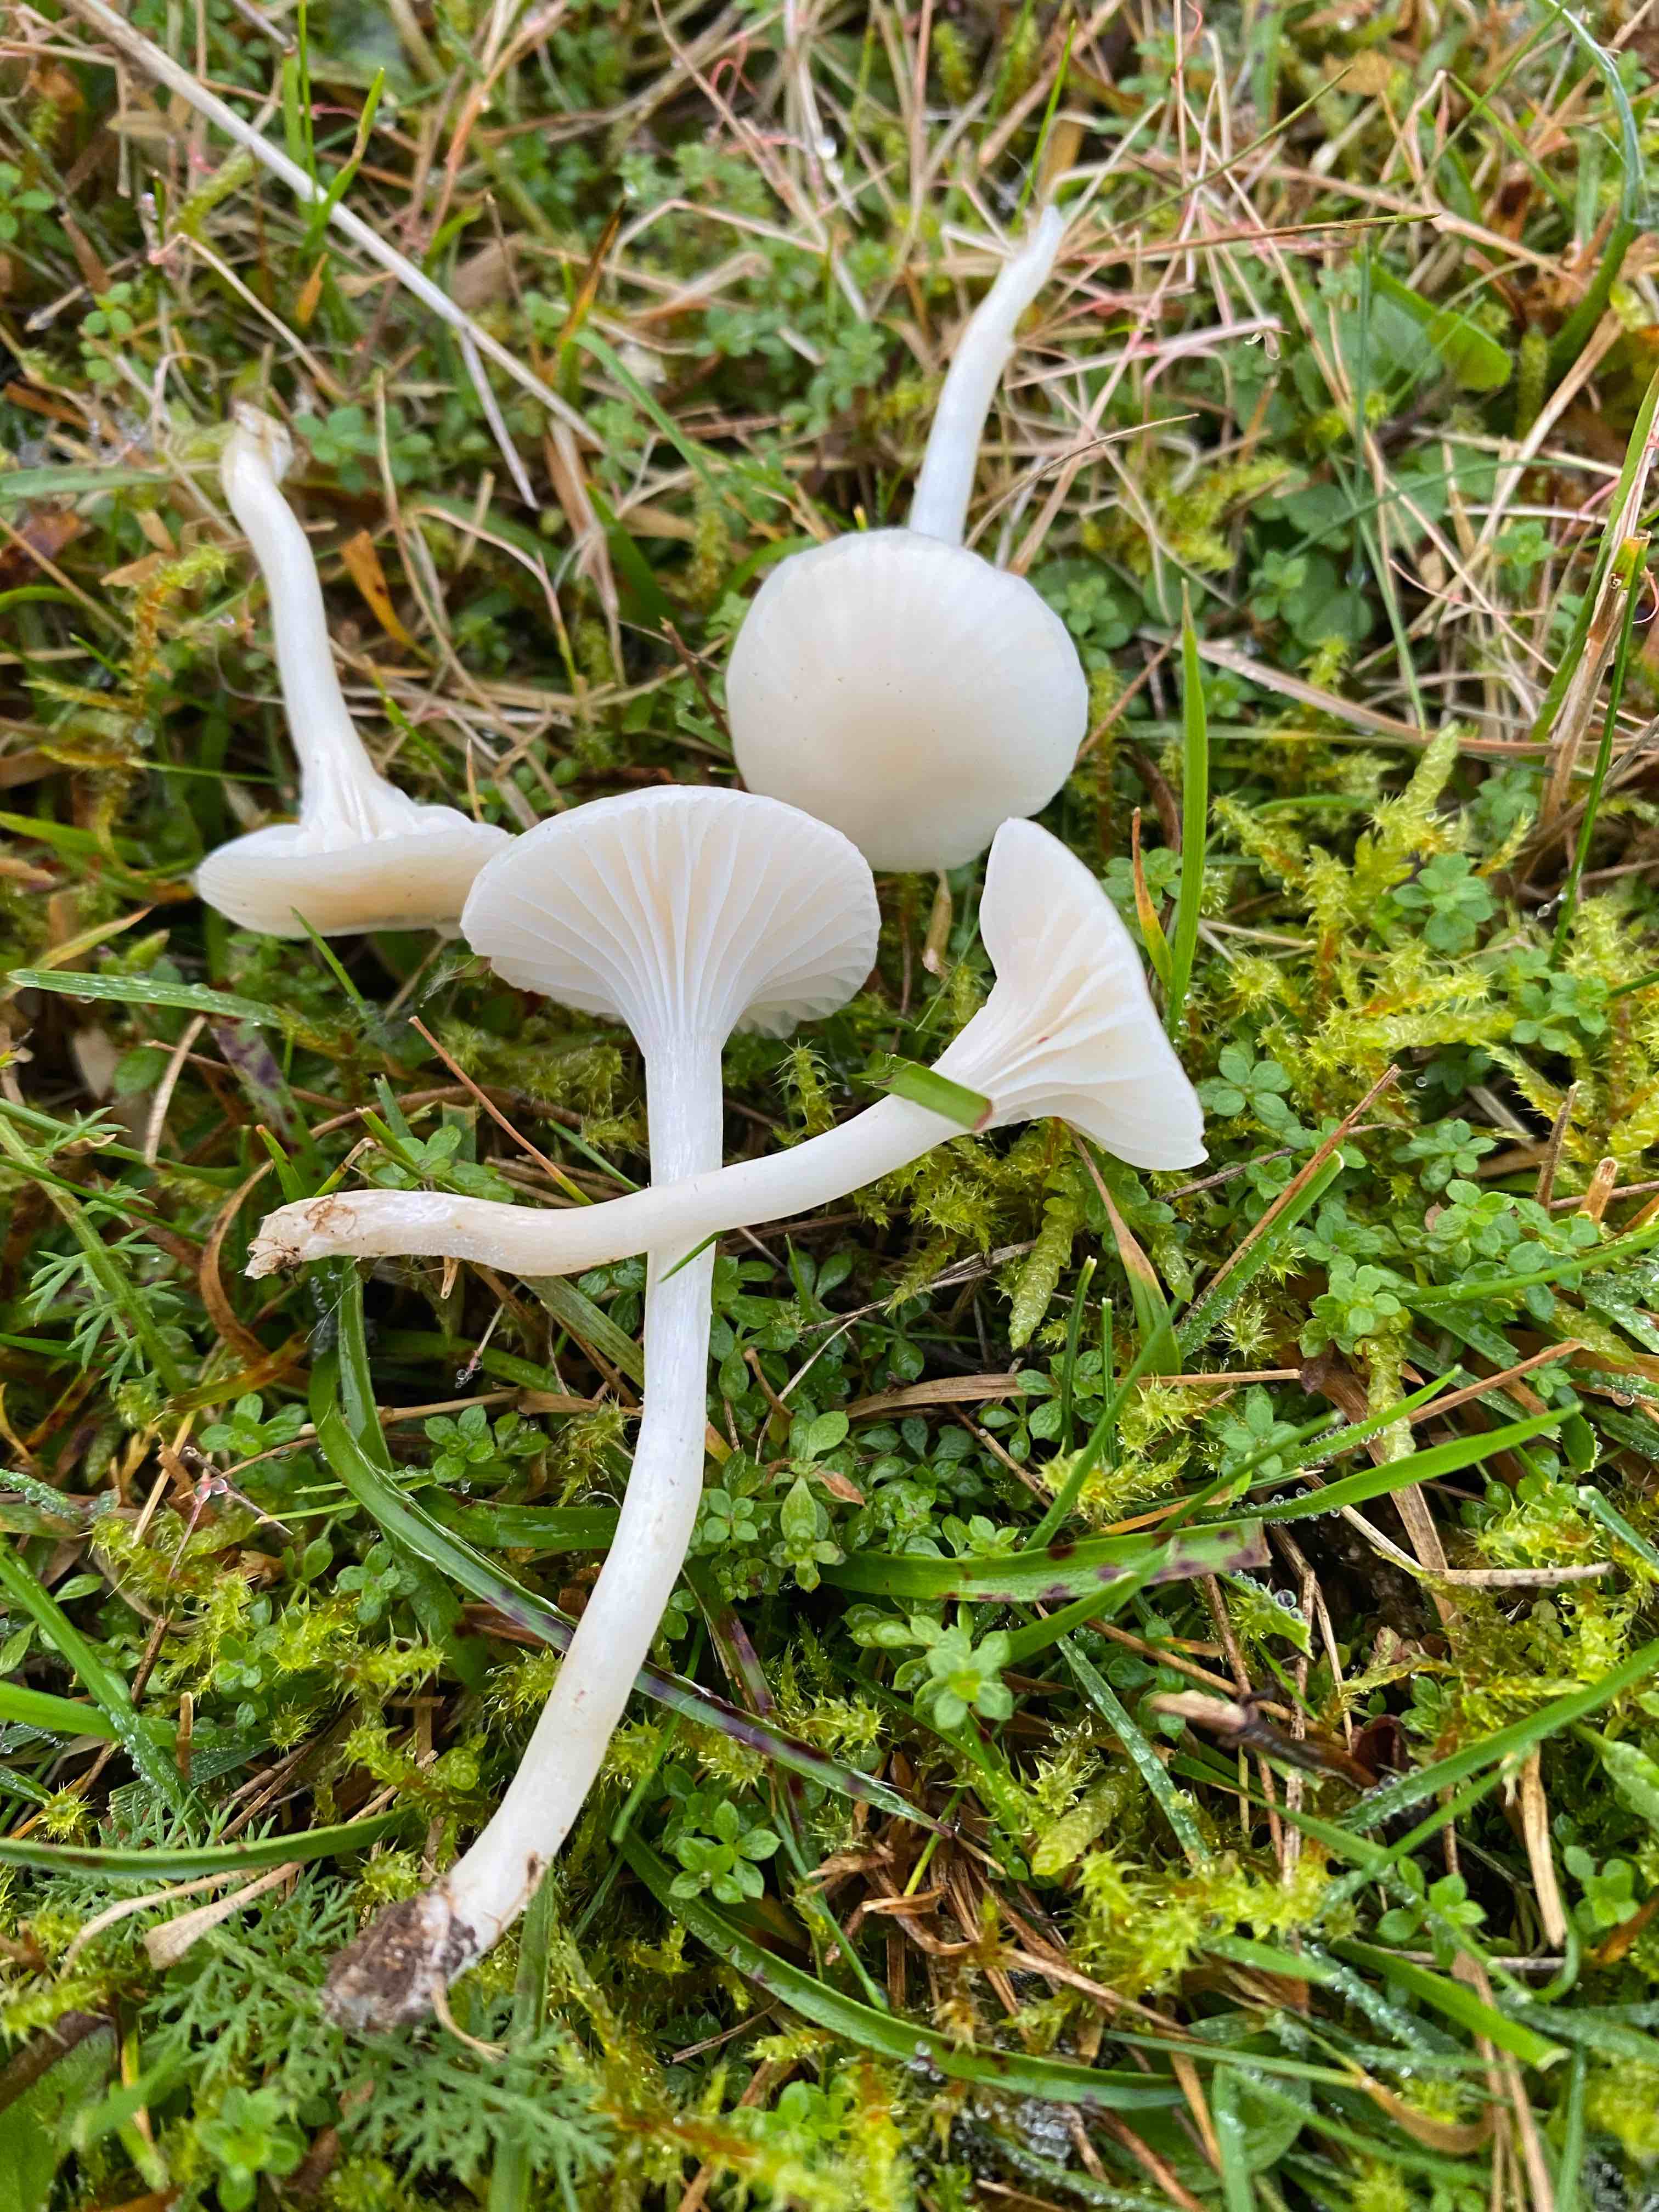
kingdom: Fungi
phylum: Basidiomycota
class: Agaricomycetes
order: Agaricales
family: Hygrophoraceae
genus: Cuphophyllus
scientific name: Cuphophyllus virgineus
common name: snehvid vokshat
